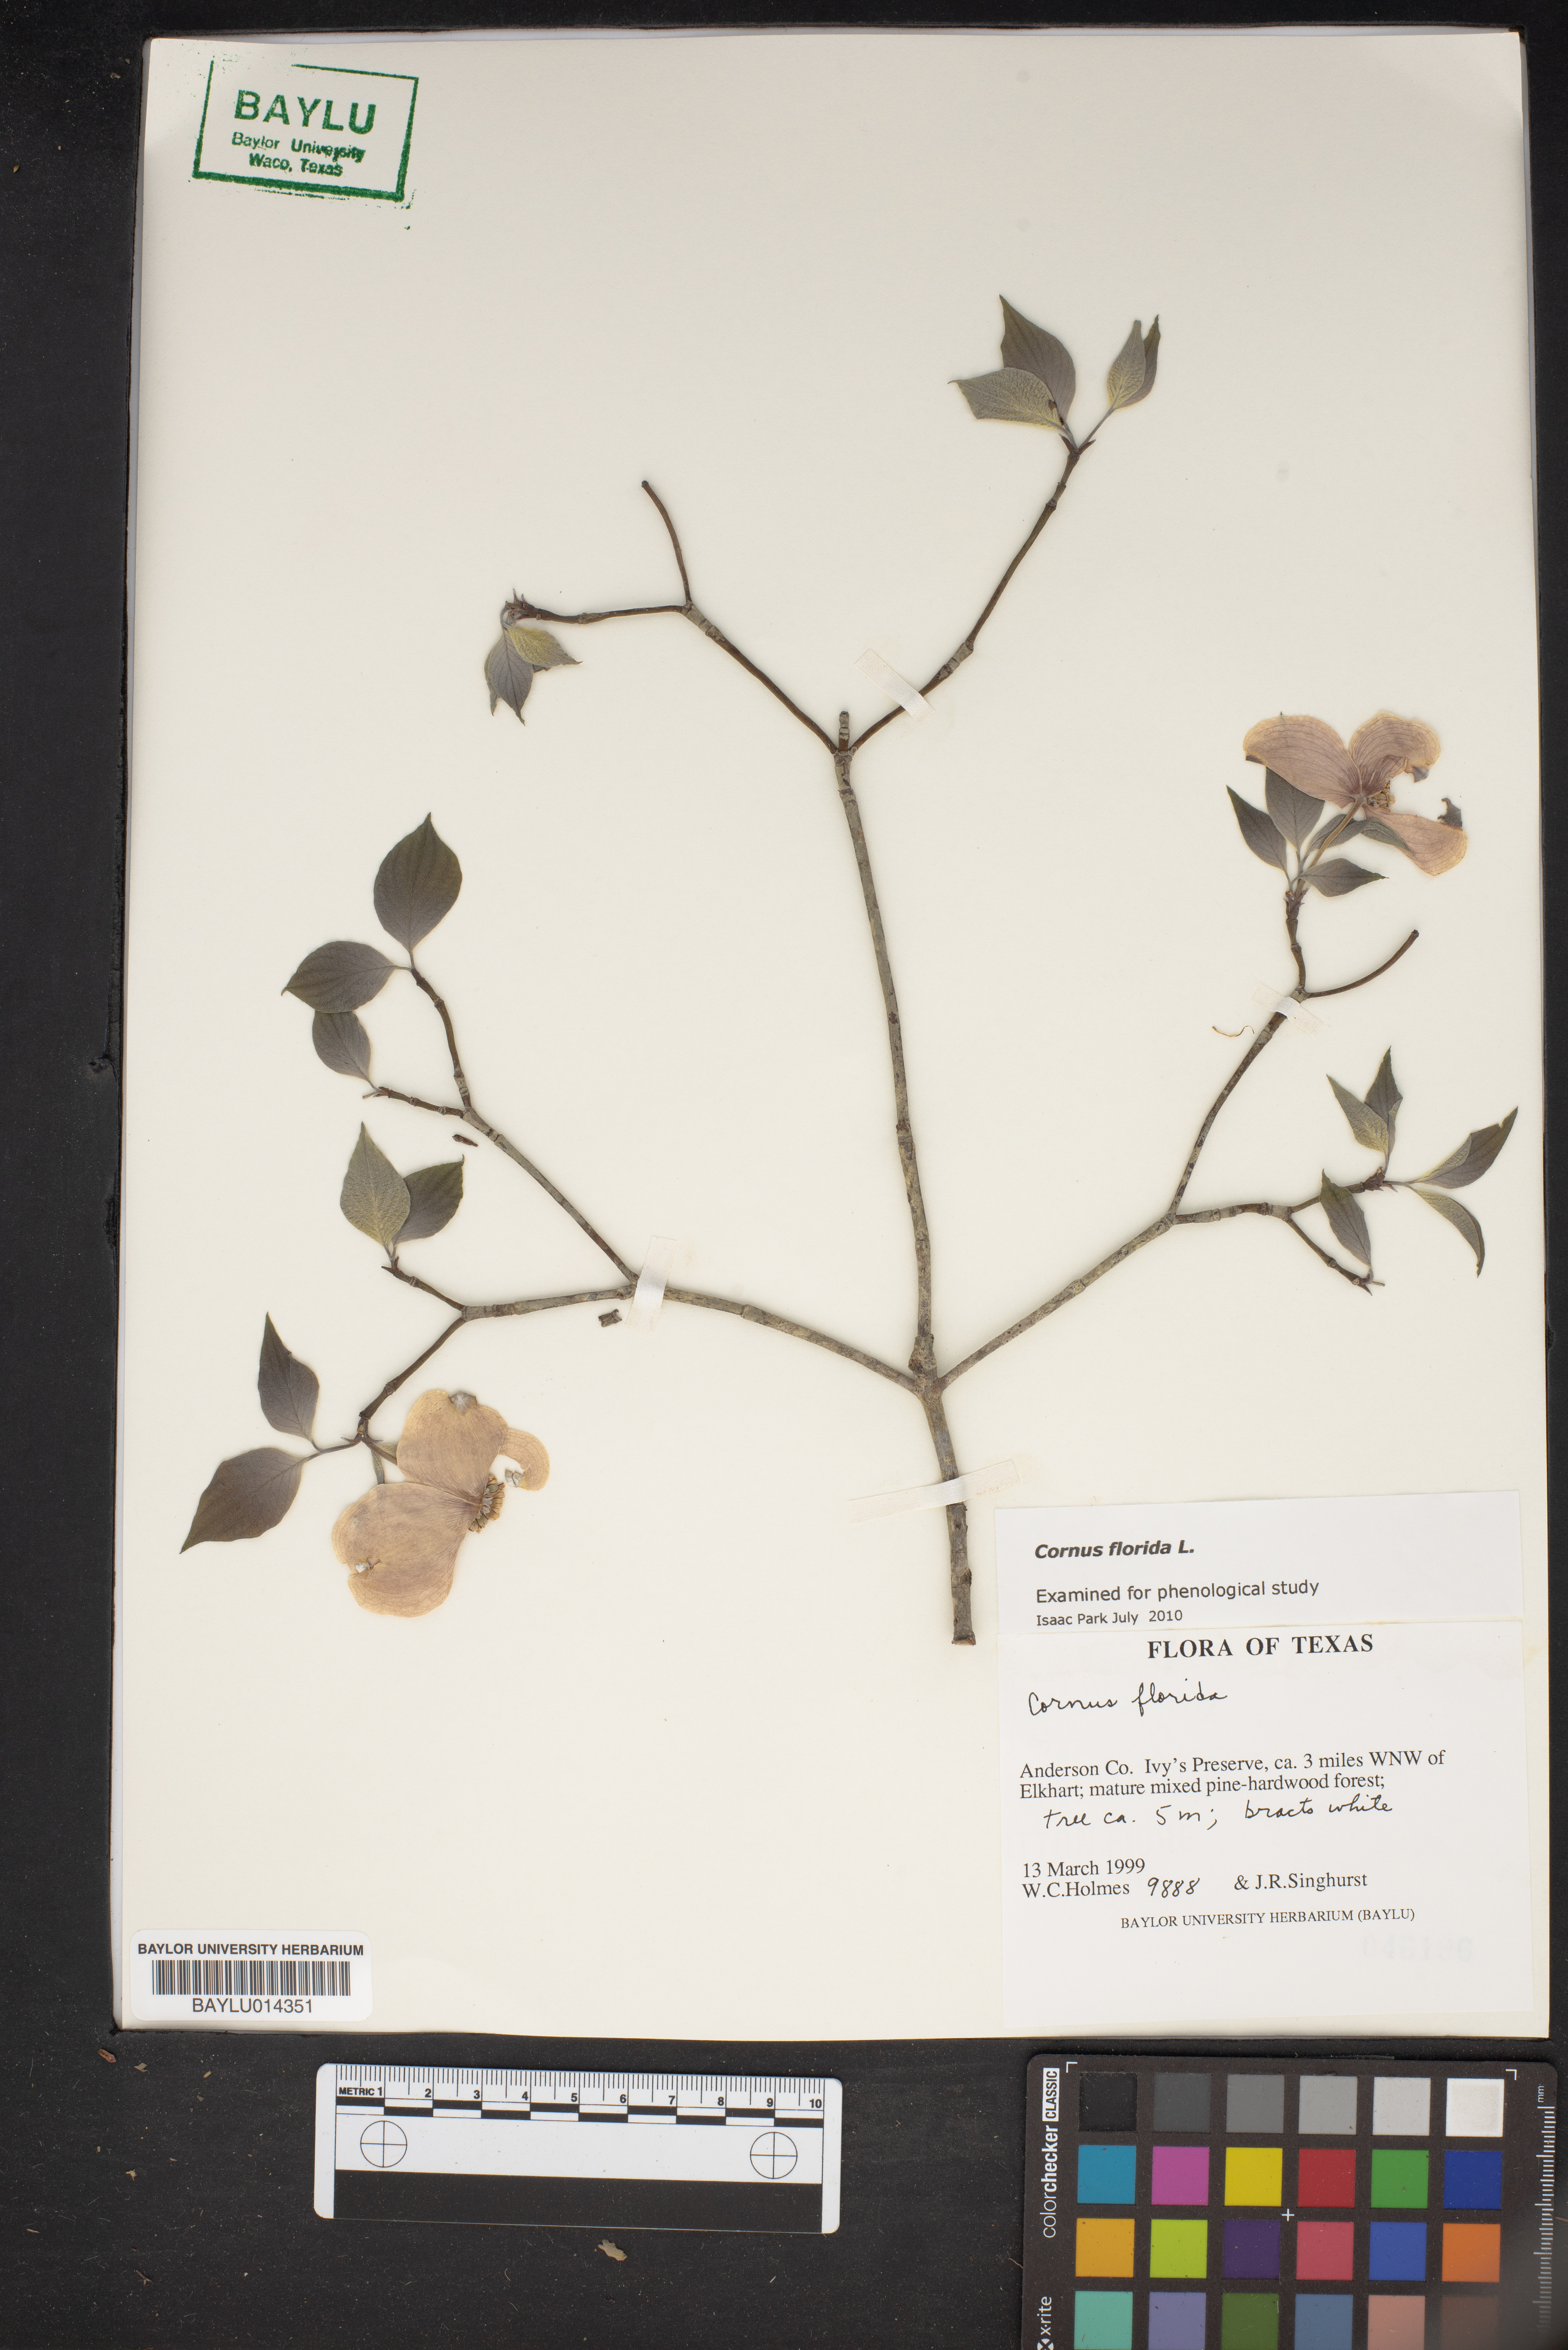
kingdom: Plantae
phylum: Tracheophyta
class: Magnoliopsida
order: Cornales
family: Cornaceae
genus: Cornus
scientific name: Cornus florida
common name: Flowering dogwood
